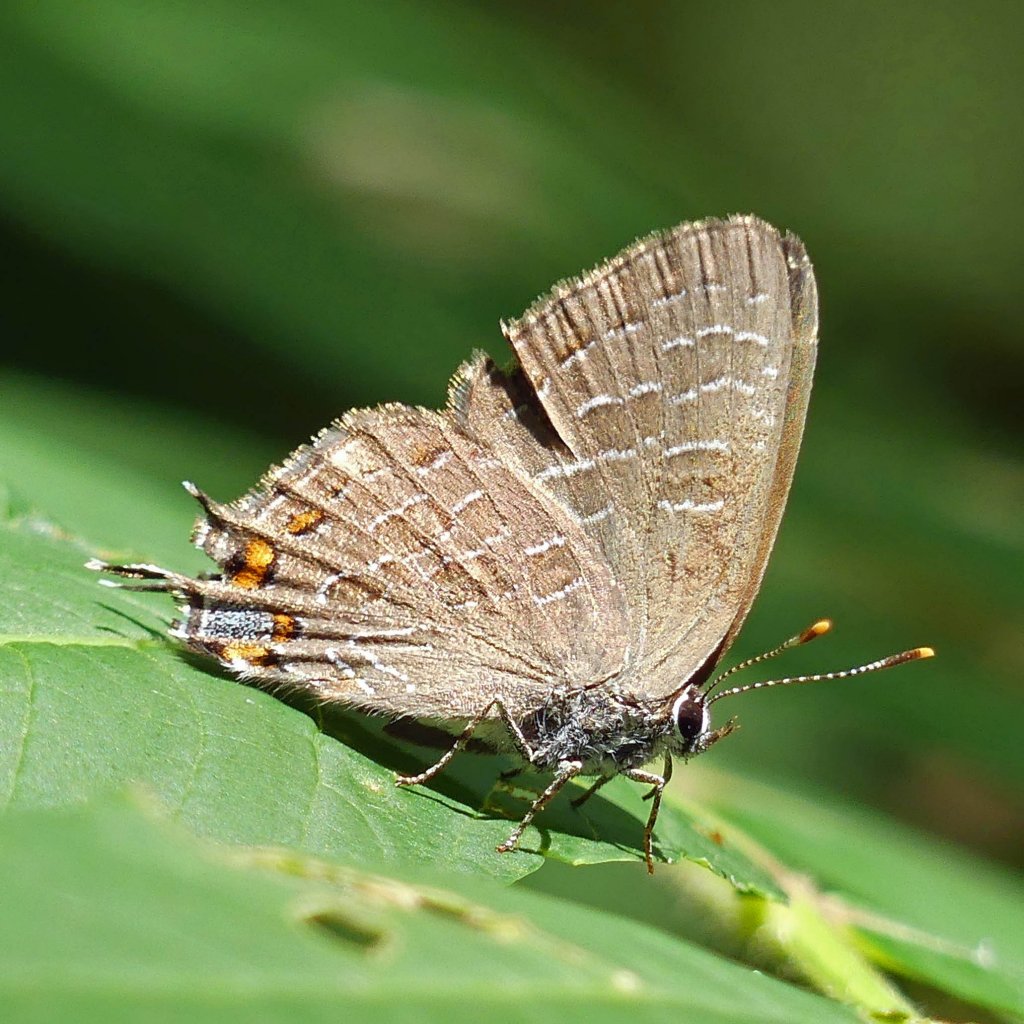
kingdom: Animalia
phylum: Arthropoda
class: Insecta
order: Lepidoptera
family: Lycaenidae
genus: Satyrium
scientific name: Satyrium liparops
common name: Striped Hairstreak
